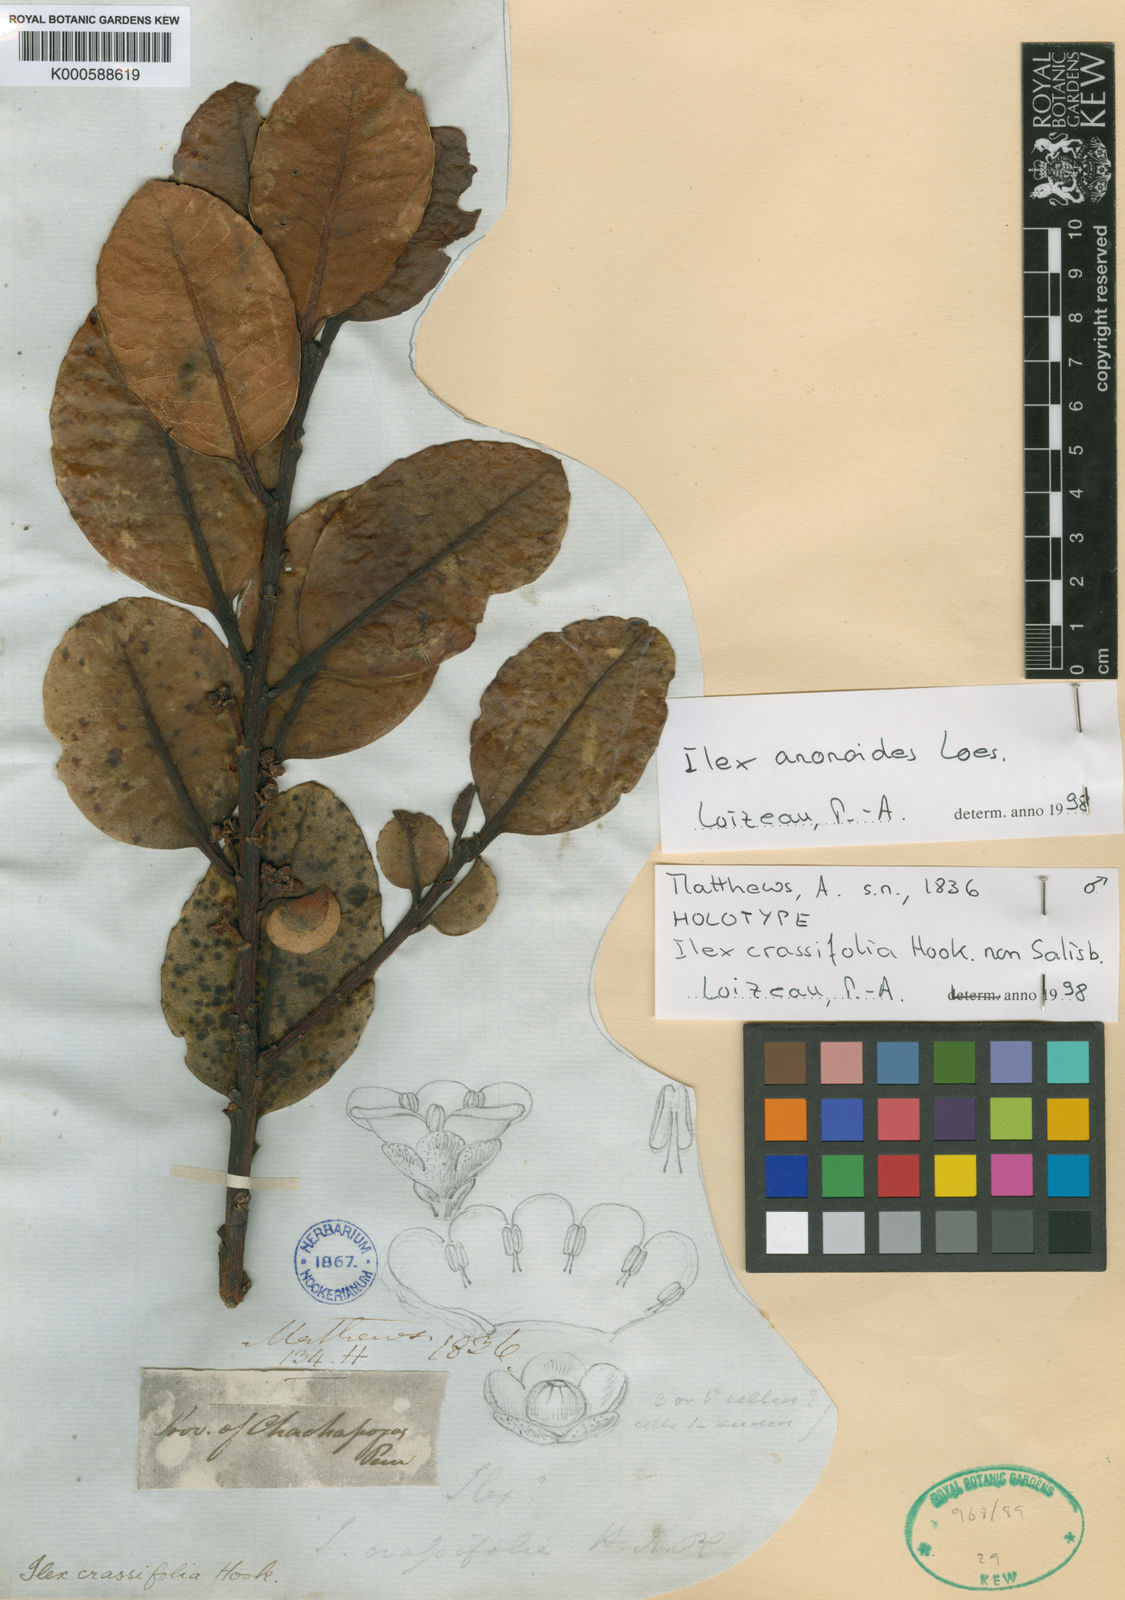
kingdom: Plantae
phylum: Tracheophyta
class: Magnoliopsida
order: Aquifoliales
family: Aquifoliaceae
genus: Ilex
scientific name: Ilex anonoides
